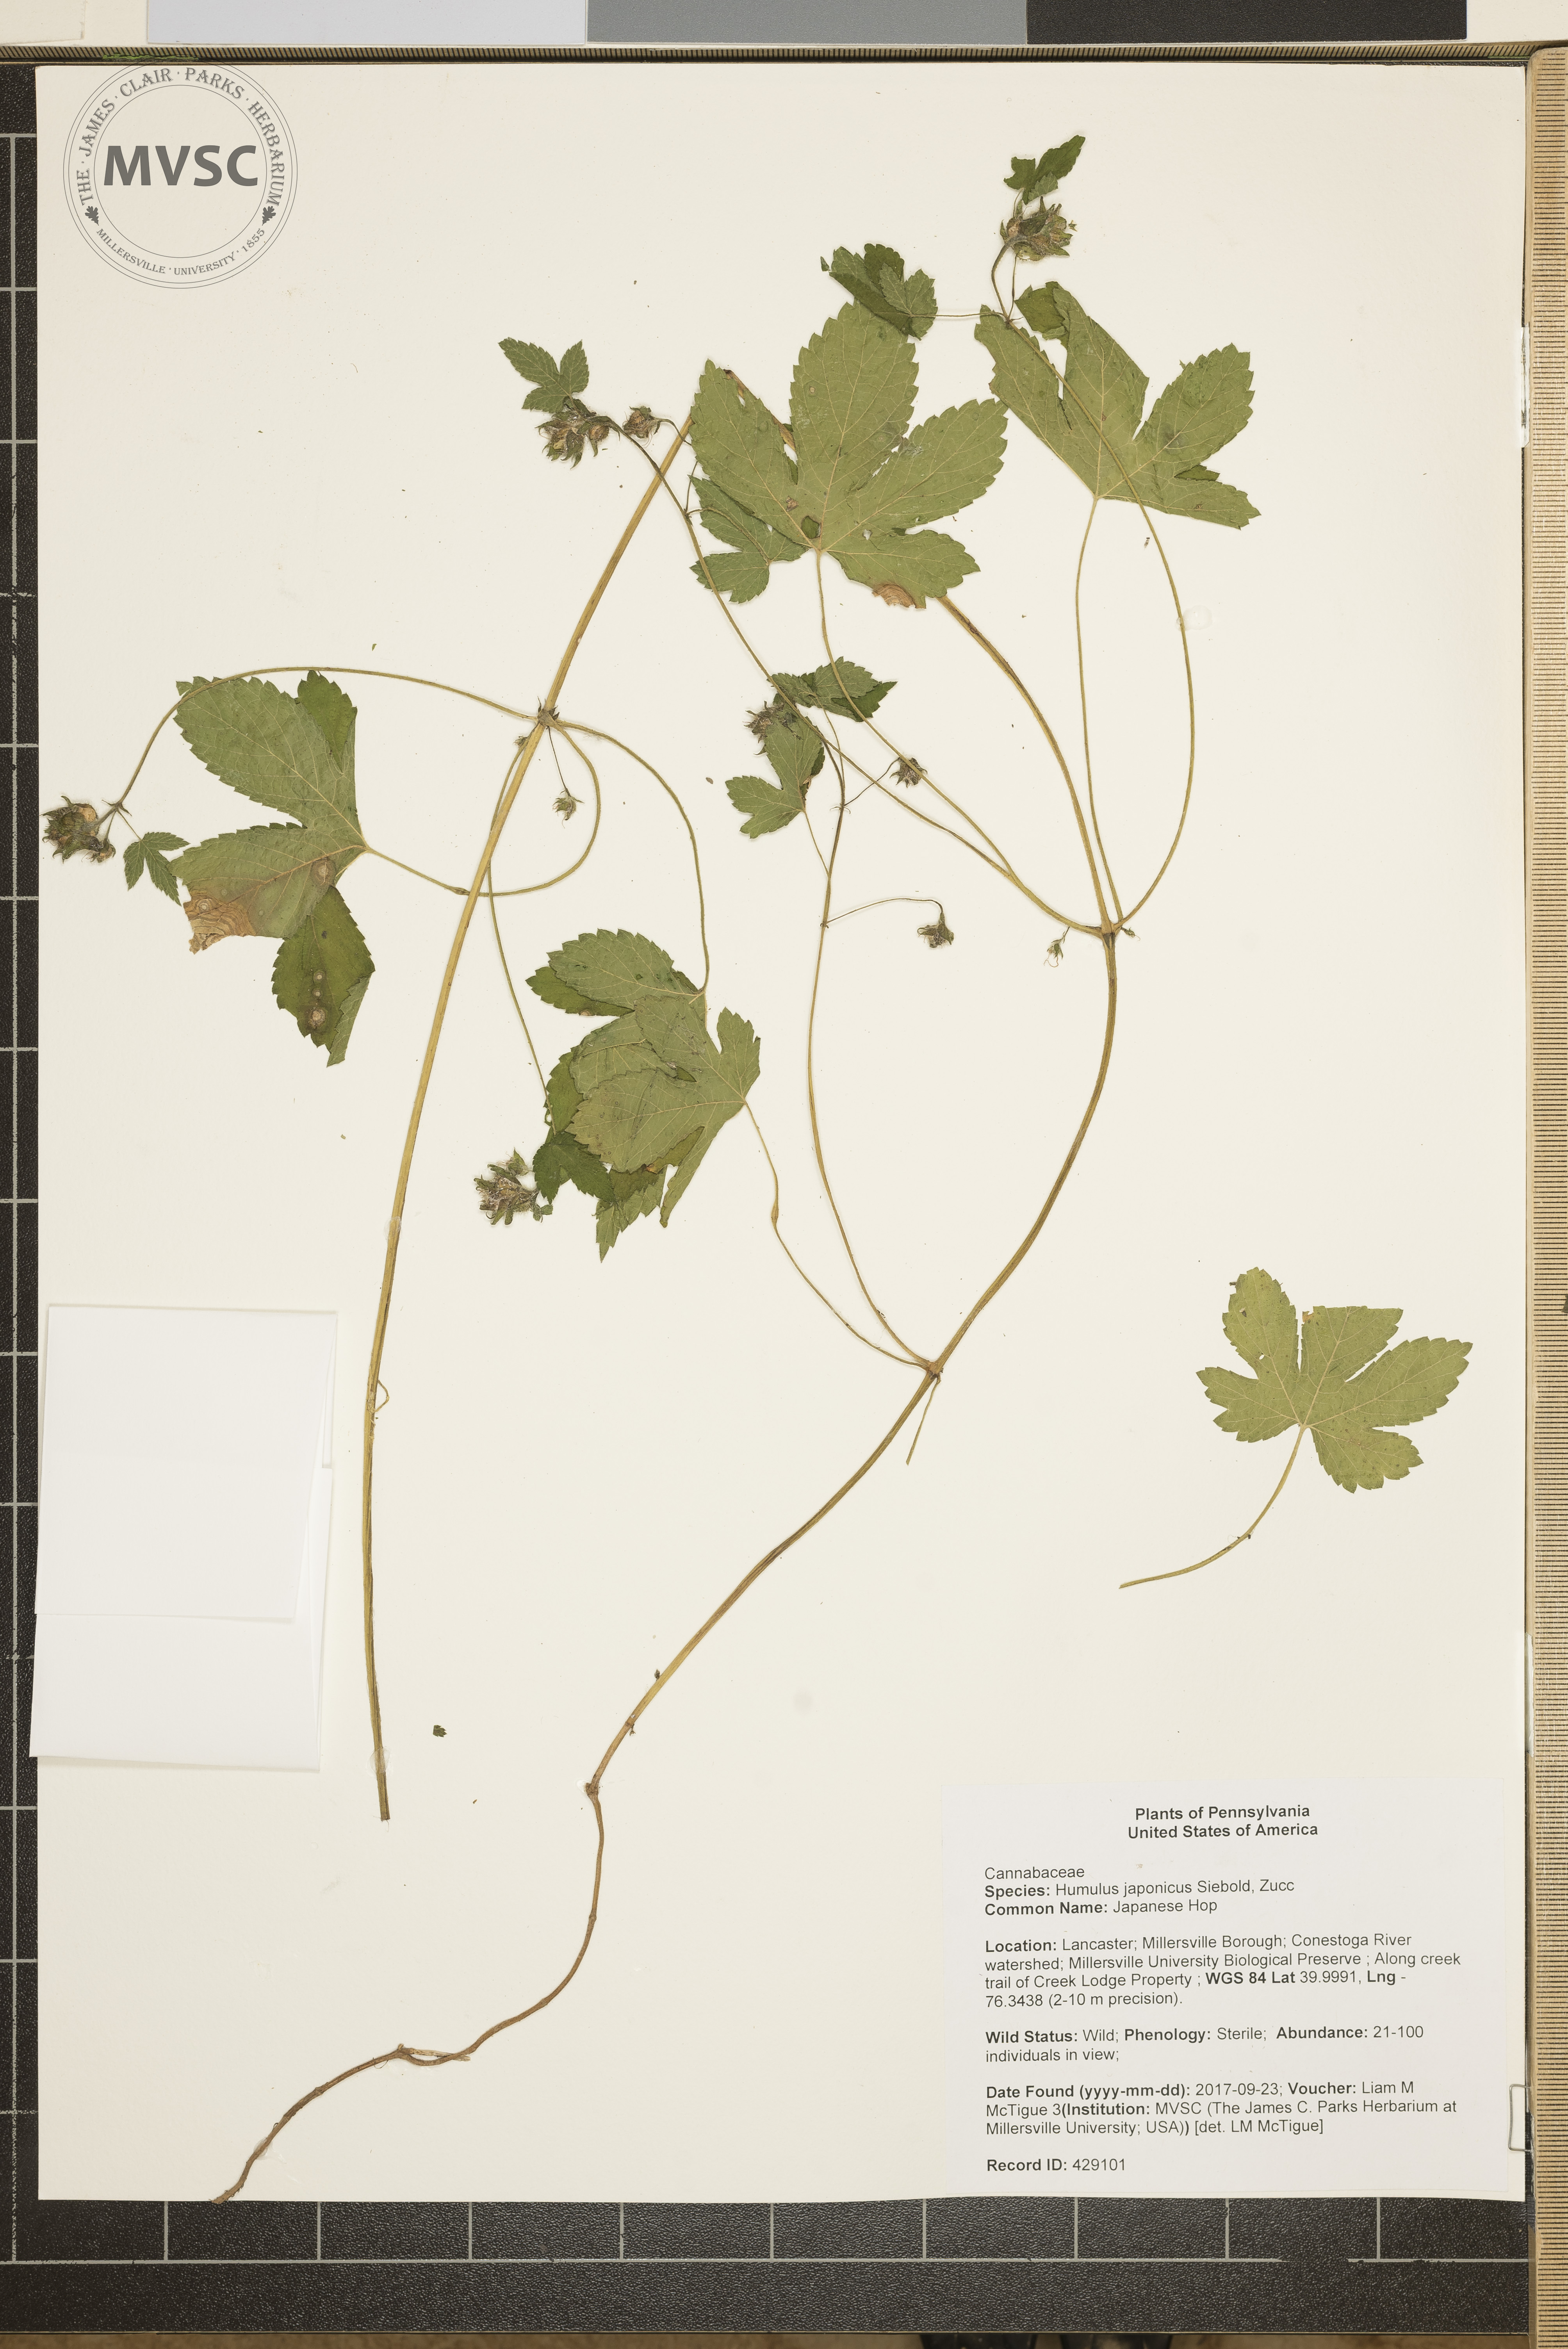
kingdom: Plantae
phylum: Tracheophyta
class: Magnoliopsida
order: Rosales
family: Cannabaceae
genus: Humulus
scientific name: Humulus scandens
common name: Japanese Hop
